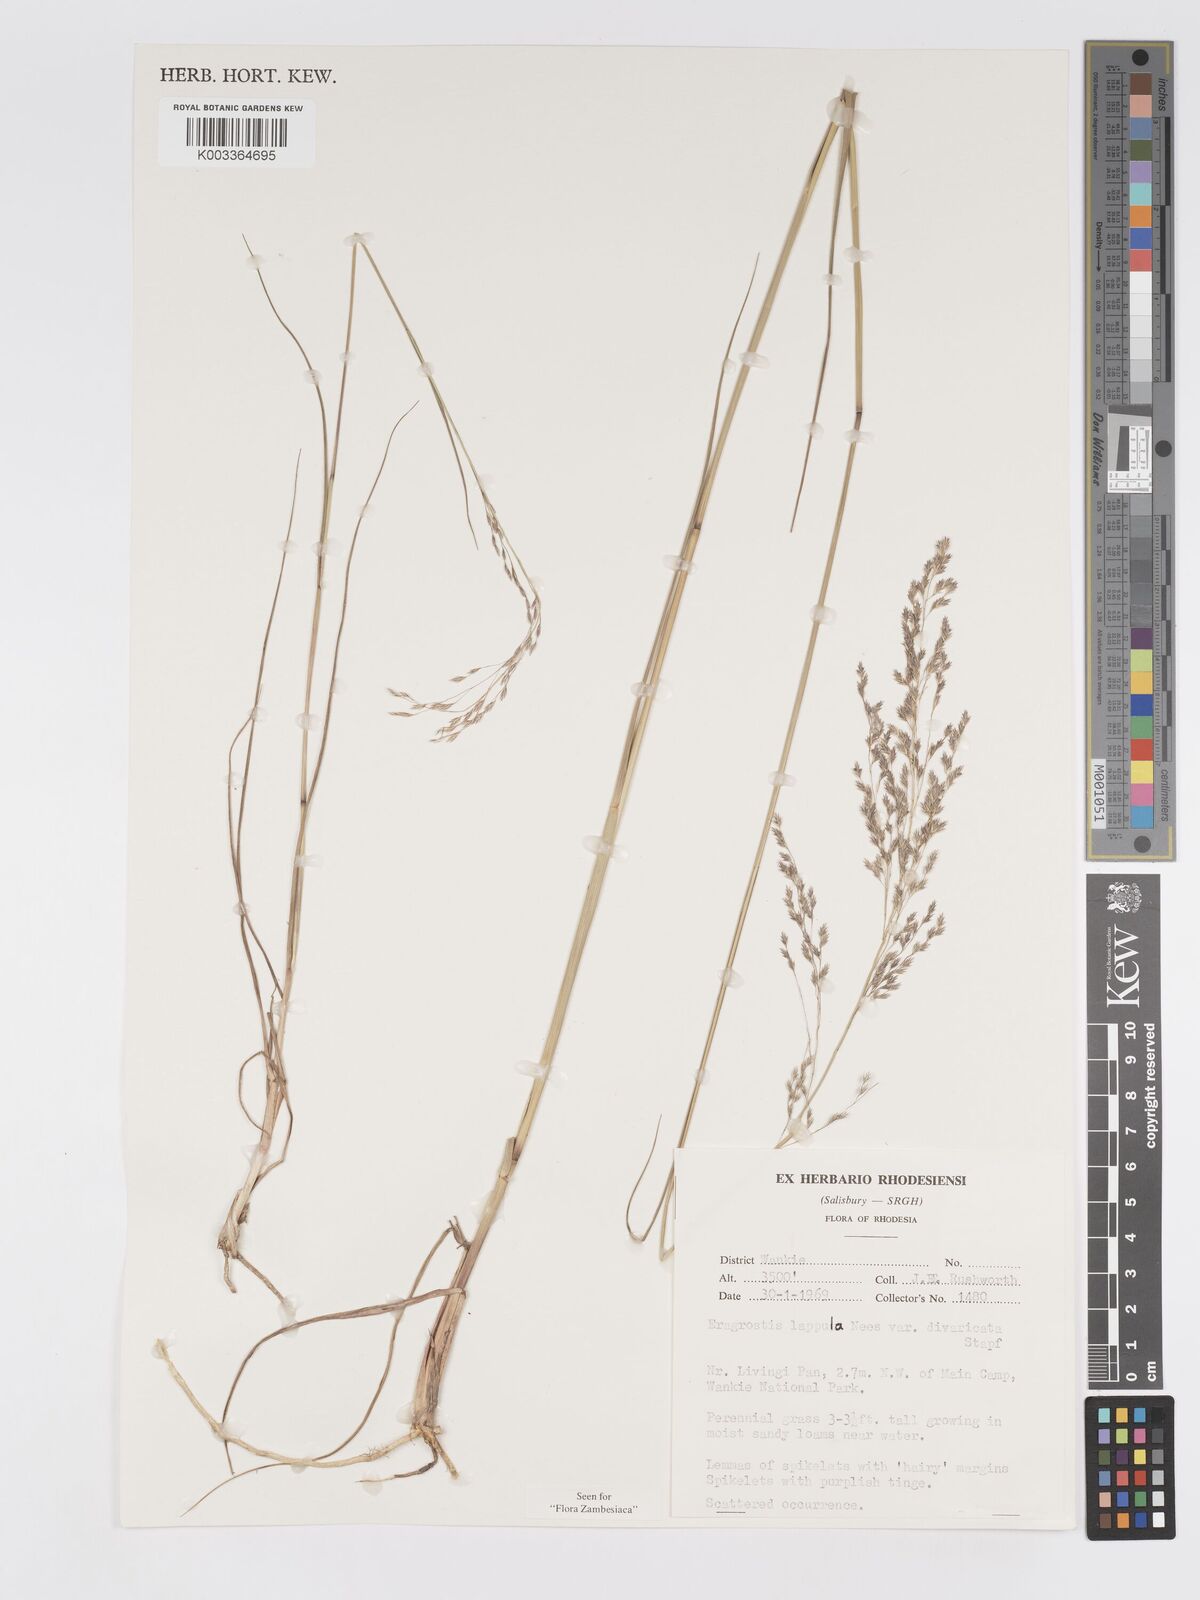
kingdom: Plantae
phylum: Tracheophyta
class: Liliopsida
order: Poales
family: Poaceae
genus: Eragrostis
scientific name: Eragrostis lappula
